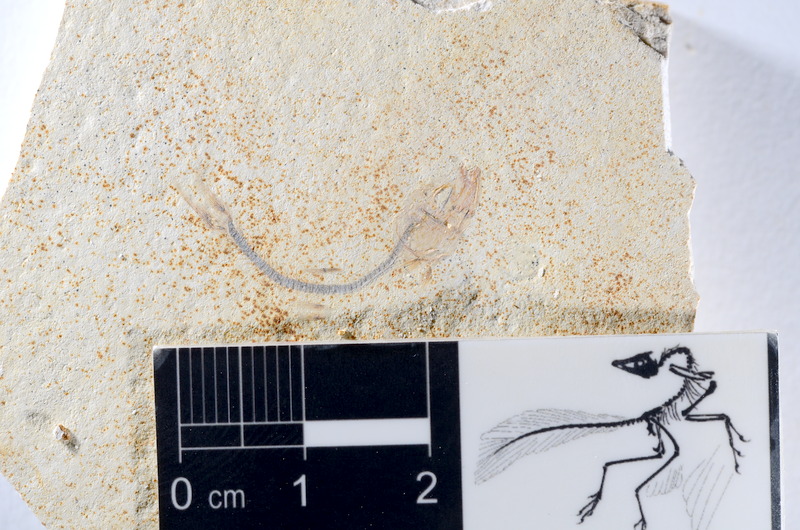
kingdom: Animalia
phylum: Chordata
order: Salmoniformes
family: Orthogonikleithridae
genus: Orthogonikleithrus
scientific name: Orthogonikleithrus hoelli
